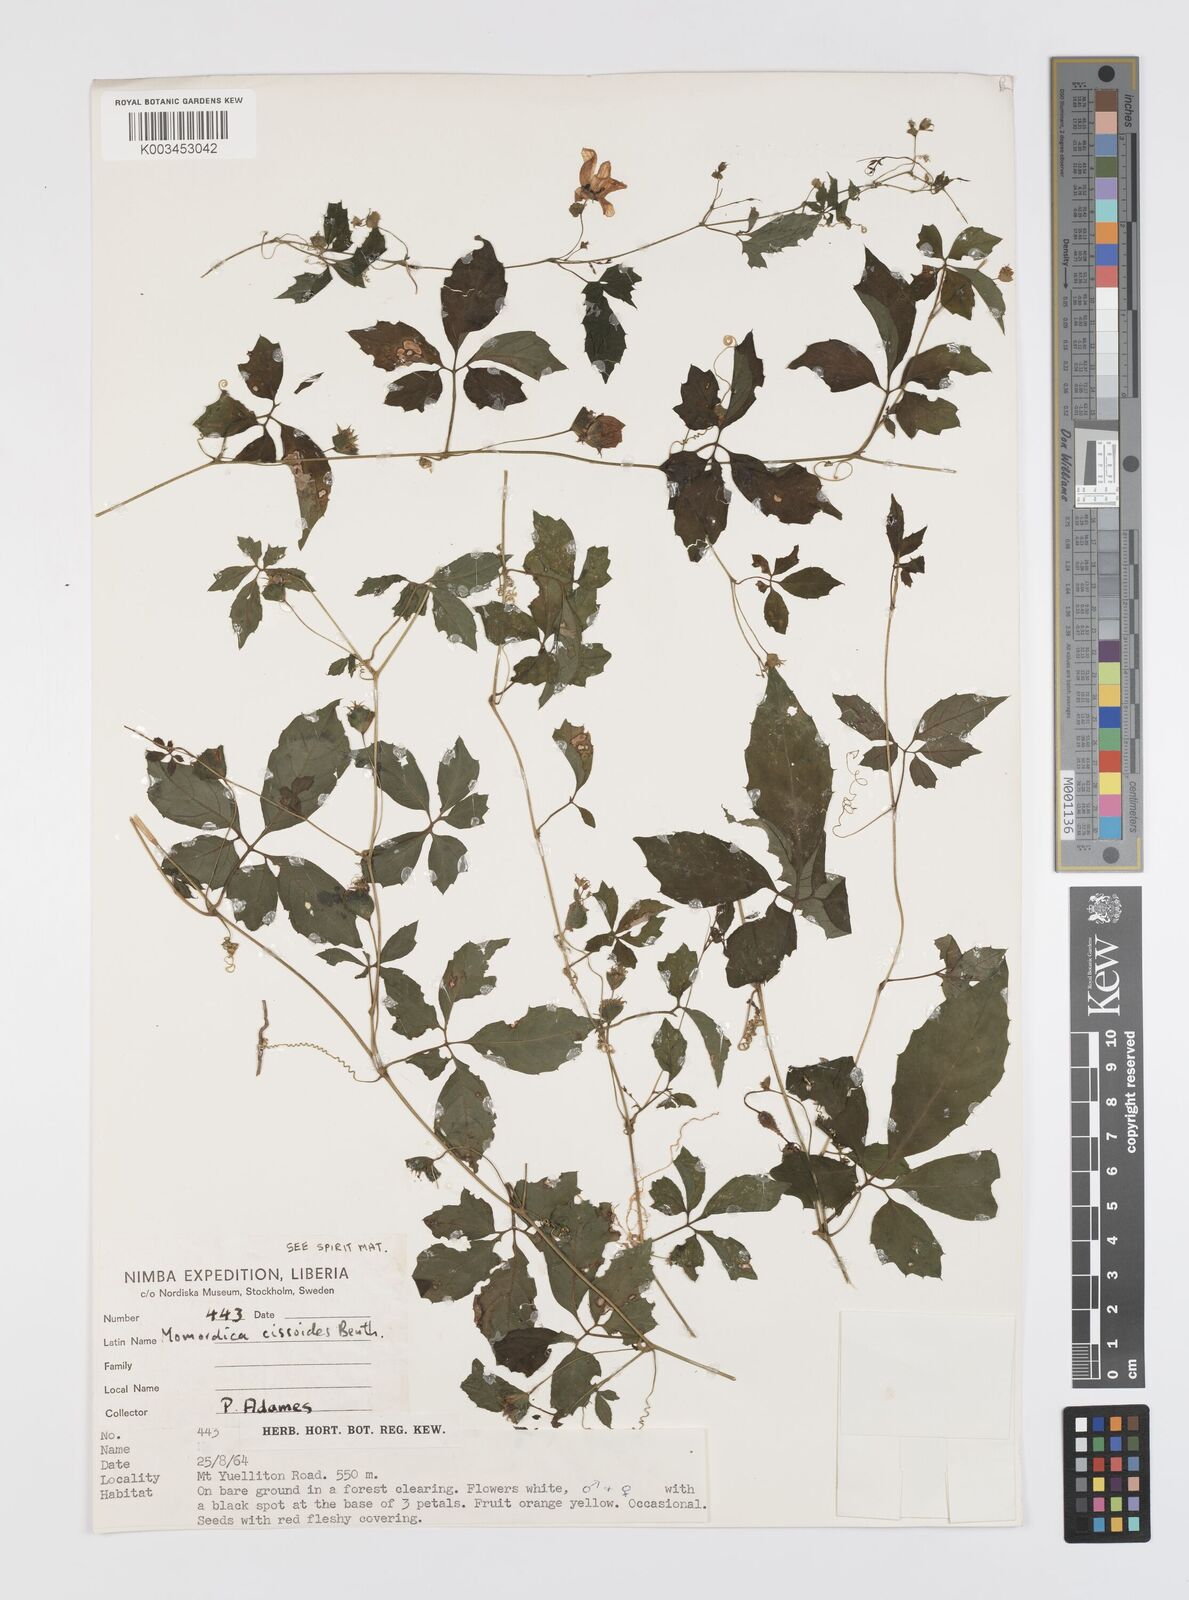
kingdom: Plantae
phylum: Tracheophyta
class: Magnoliopsida
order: Cucurbitales
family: Cucurbitaceae
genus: Momordica
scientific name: Momordica cissoides
